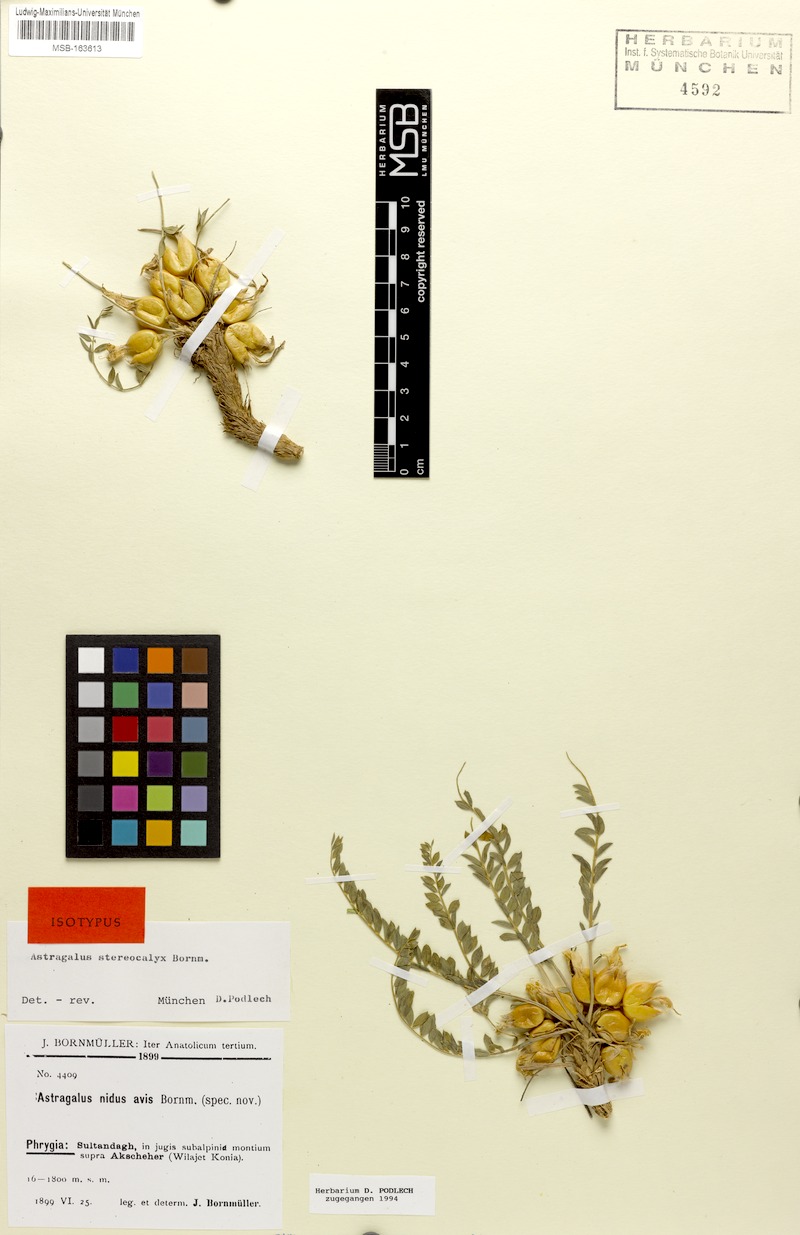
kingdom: Plantae
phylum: Tracheophyta
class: Magnoliopsida
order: Fabales
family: Fabaceae
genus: Astragalus
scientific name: Astragalus physocalyx
